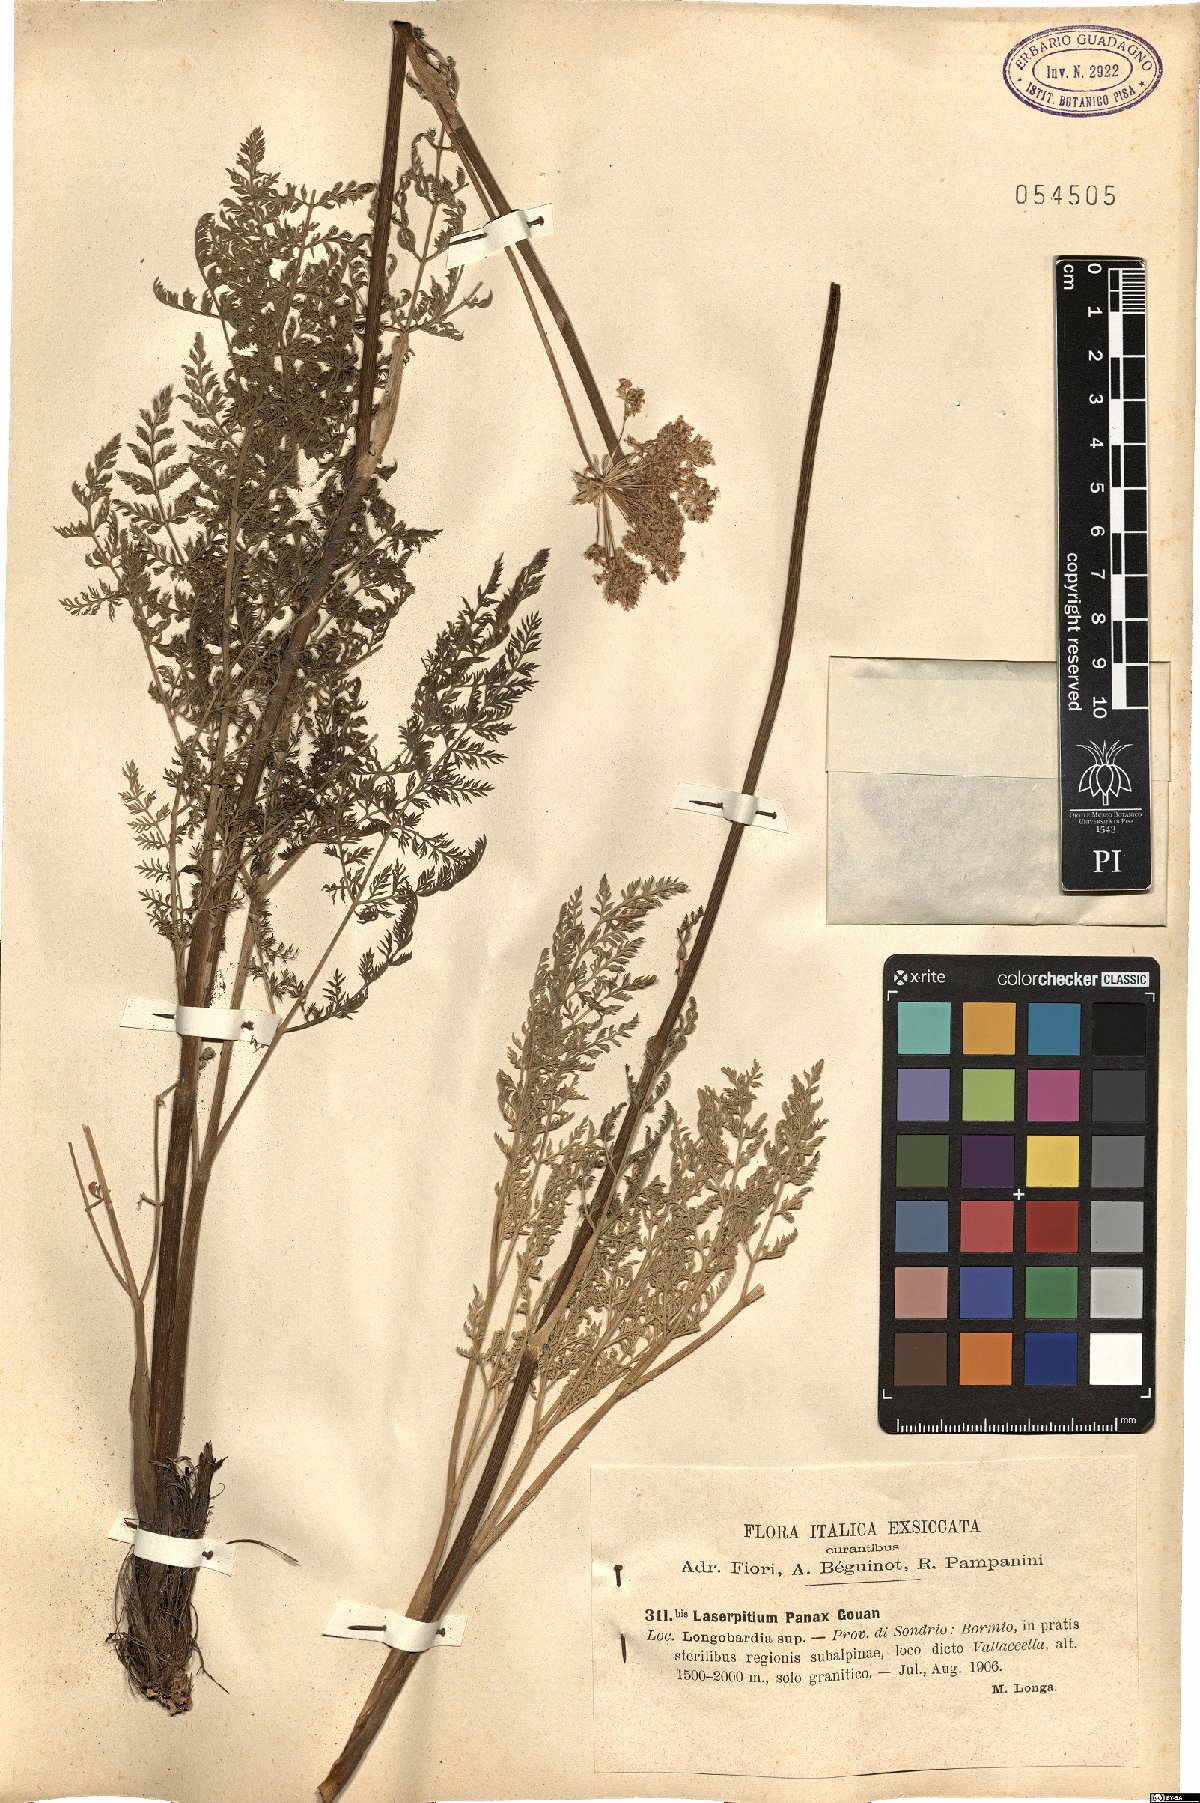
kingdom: Plantae
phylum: Tracheophyta
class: Magnoliopsida
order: Apiales
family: Apiaceae
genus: Laserpitium
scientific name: Laserpitium halleri
